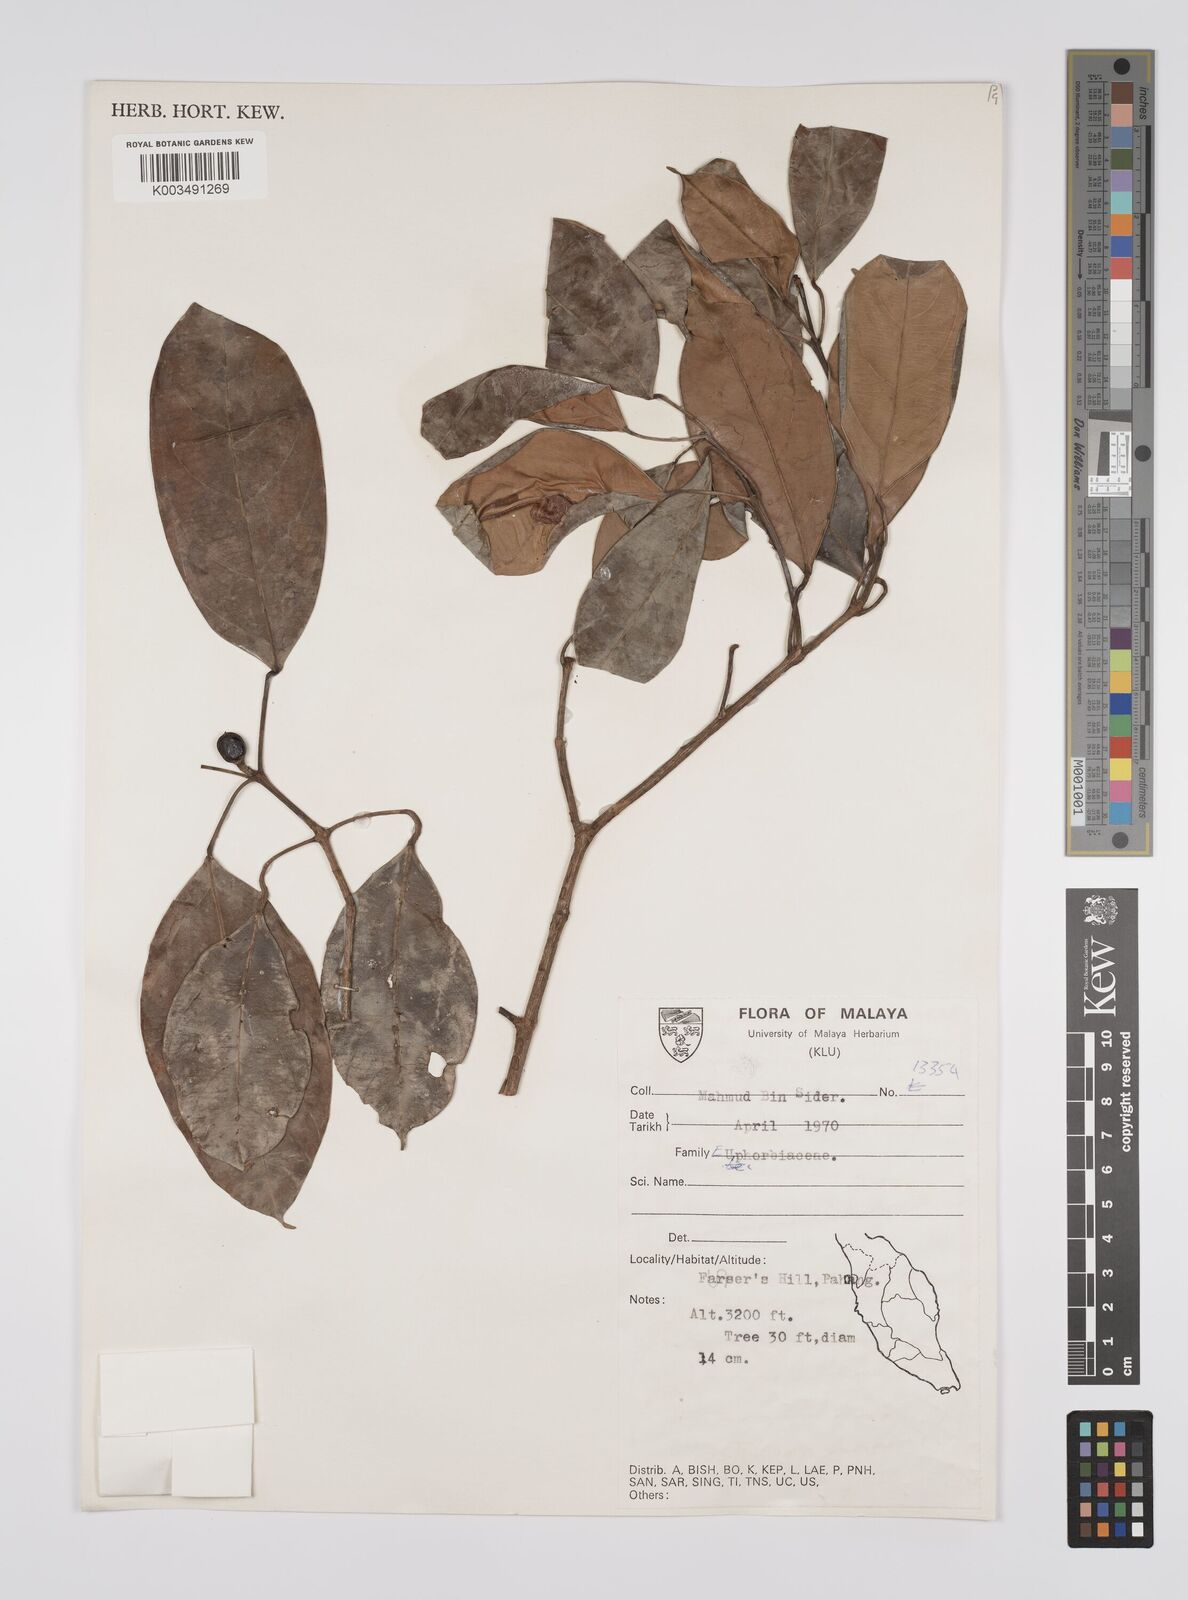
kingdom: Plantae
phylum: Tracheophyta
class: Magnoliopsida
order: Malpighiales
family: Euphorbiaceae
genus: Blumeodendron
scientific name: Blumeodendron tokbrai
